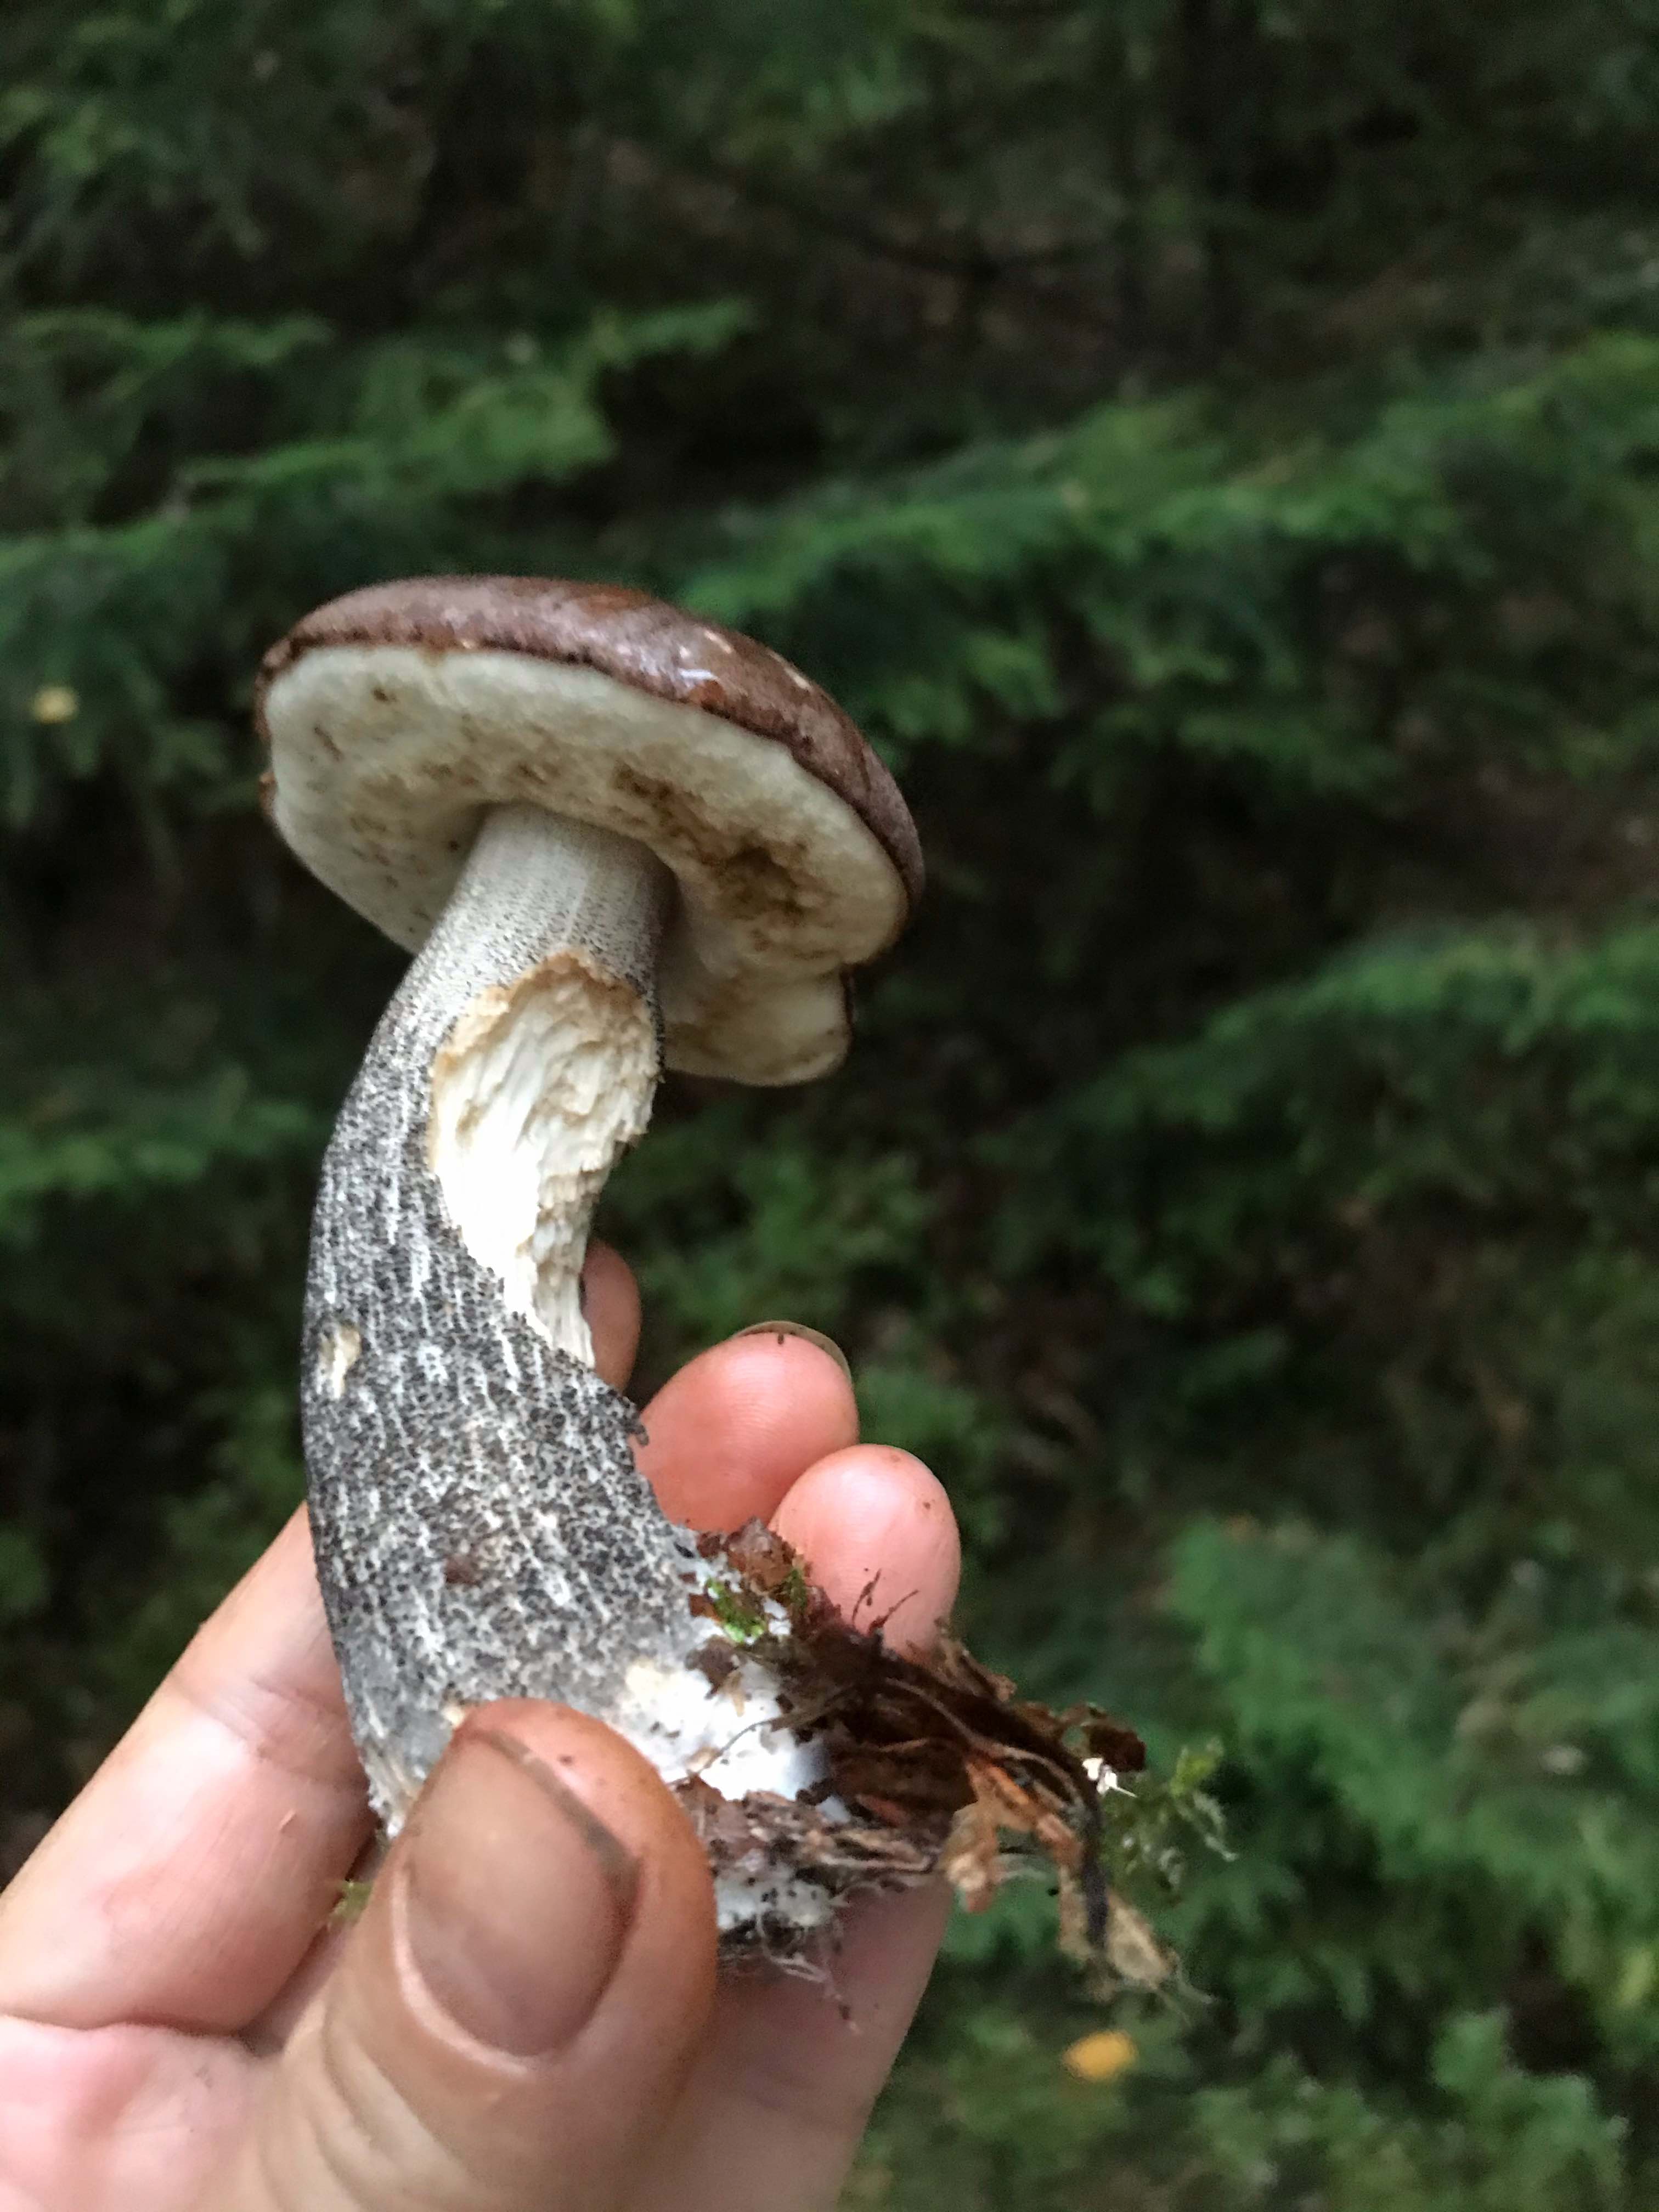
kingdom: Fungi
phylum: Basidiomycota
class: Agaricomycetes
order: Boletales
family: Boletaceae
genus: Leccinum
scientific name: Leccinum scabrum
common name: brun skælrørhat
